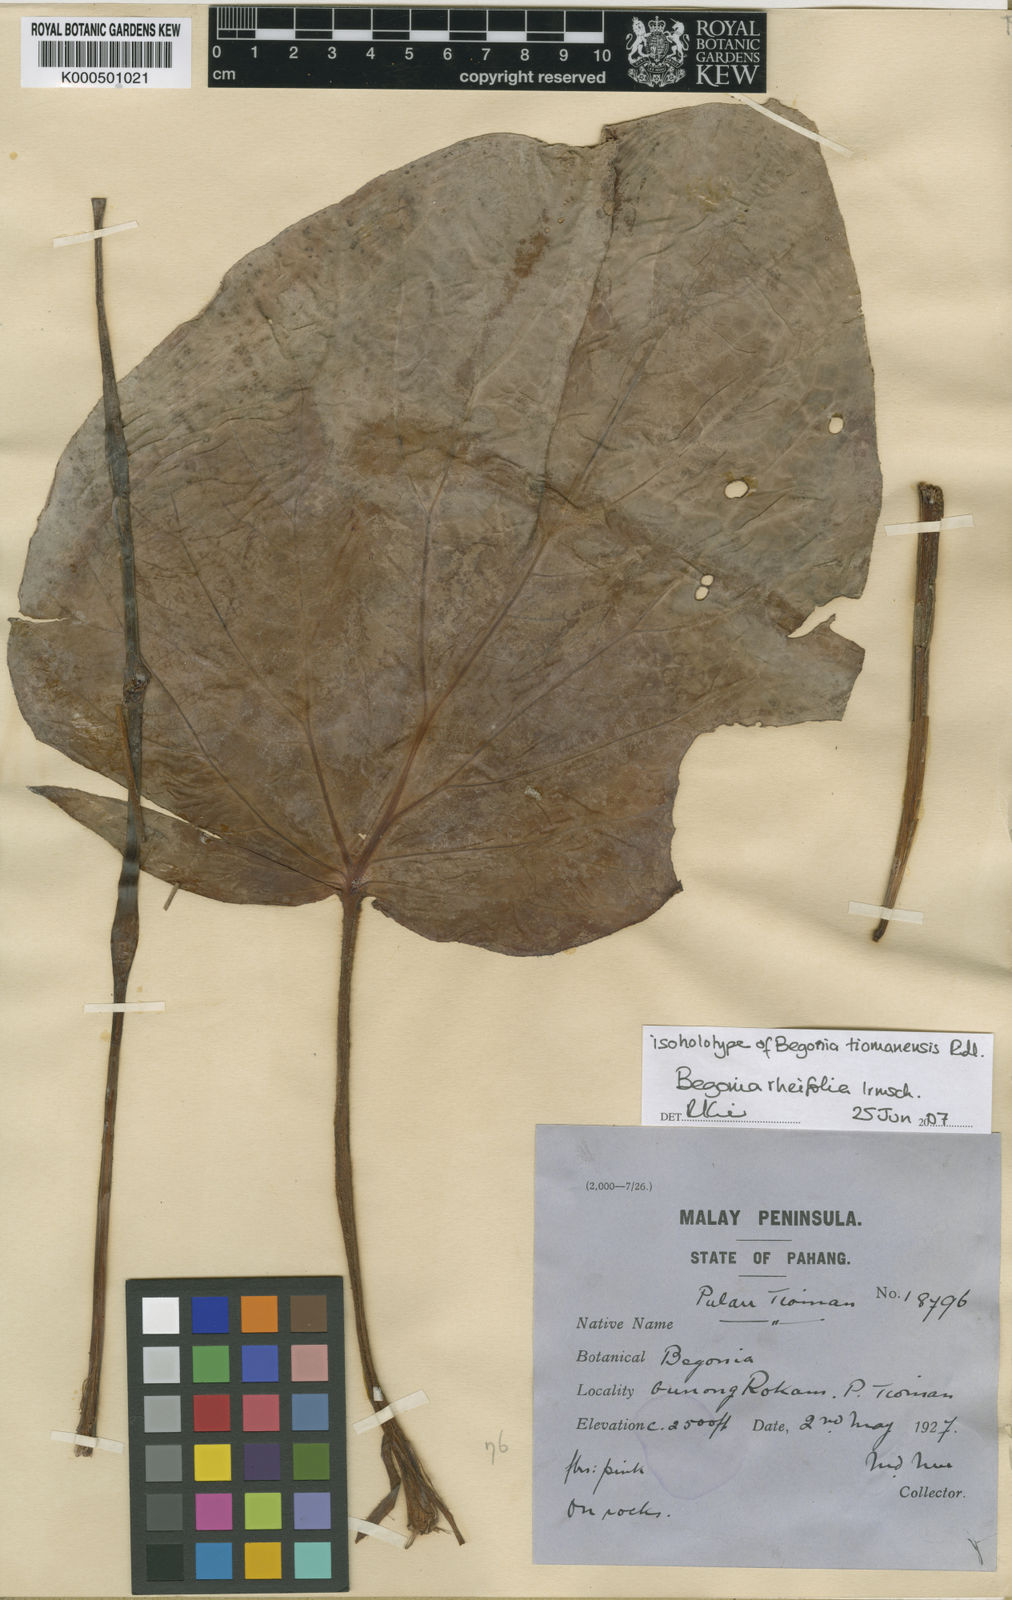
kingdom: Plantae
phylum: Tracheophyta
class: Magnoliopsida
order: Cucurbitales
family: Begoniaceae
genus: Begonia
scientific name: Begonia rheifolia
